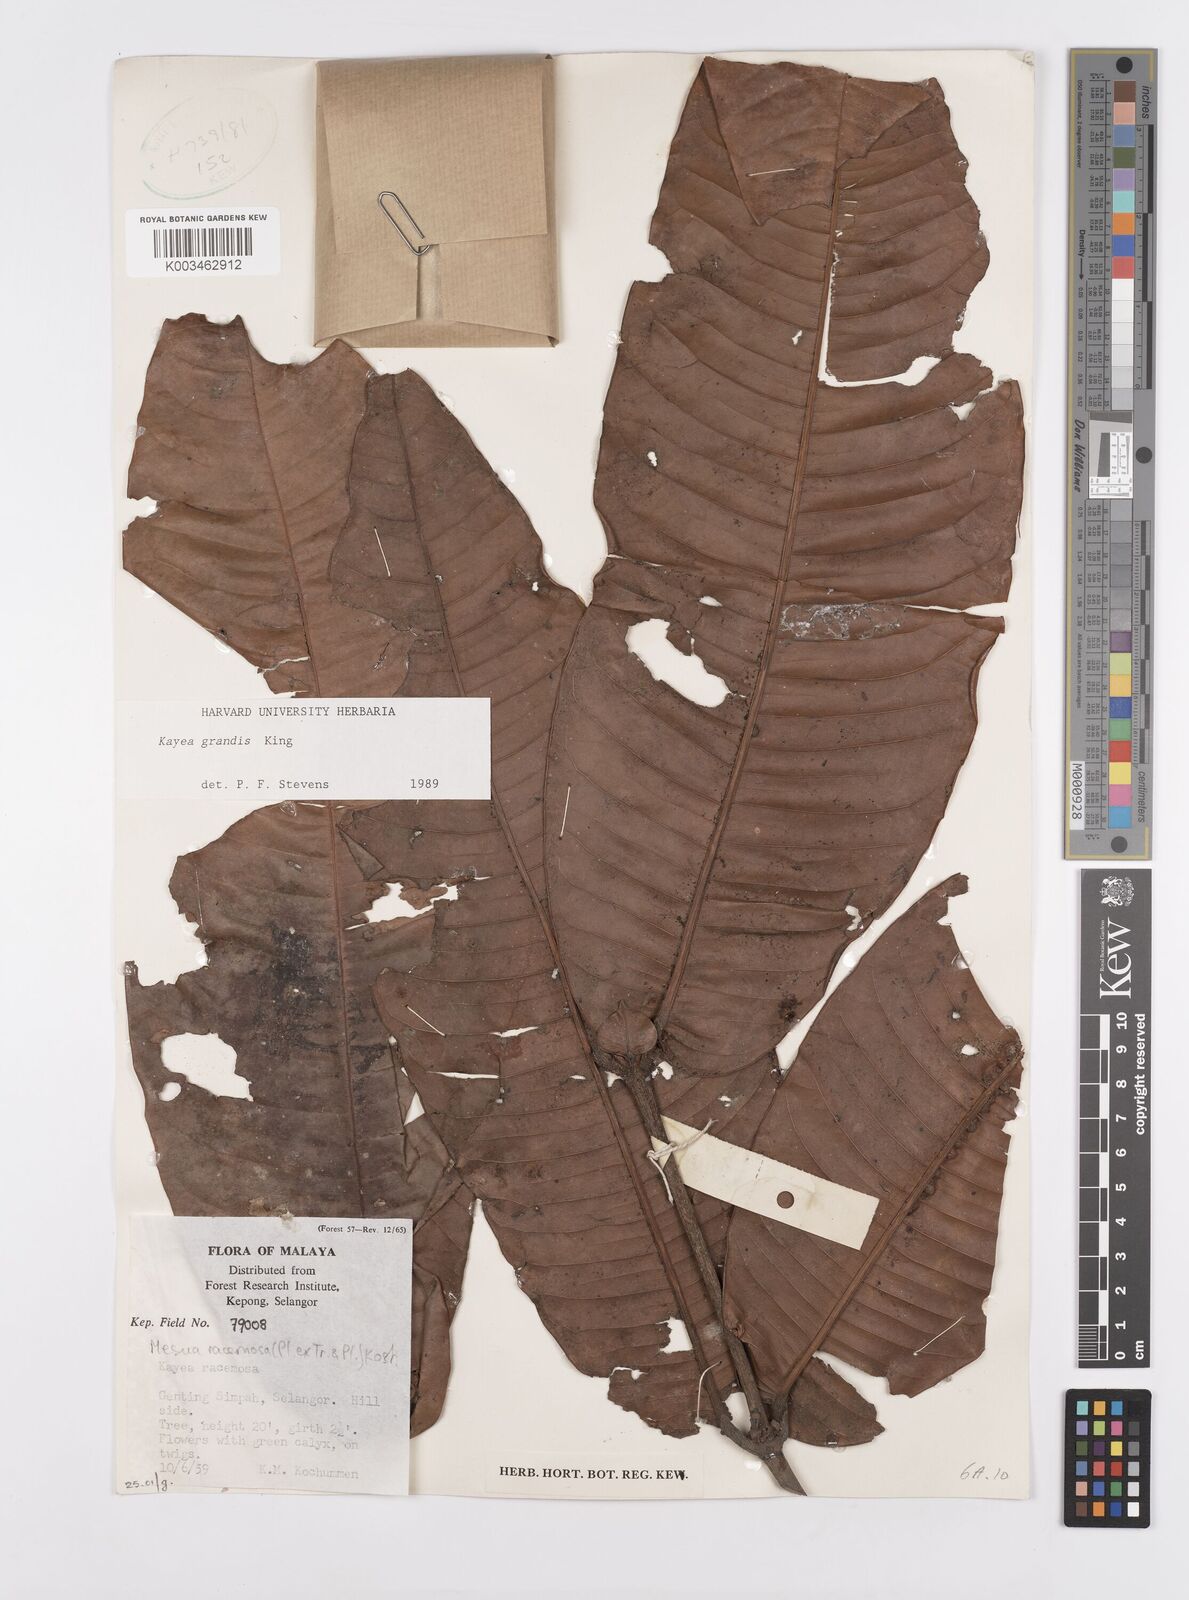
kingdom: Plantae
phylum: Tracheophyta
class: Magnoliopsida
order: Malpighiales
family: Calophyllaceae
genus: Kayea
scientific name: Kayea grandis
